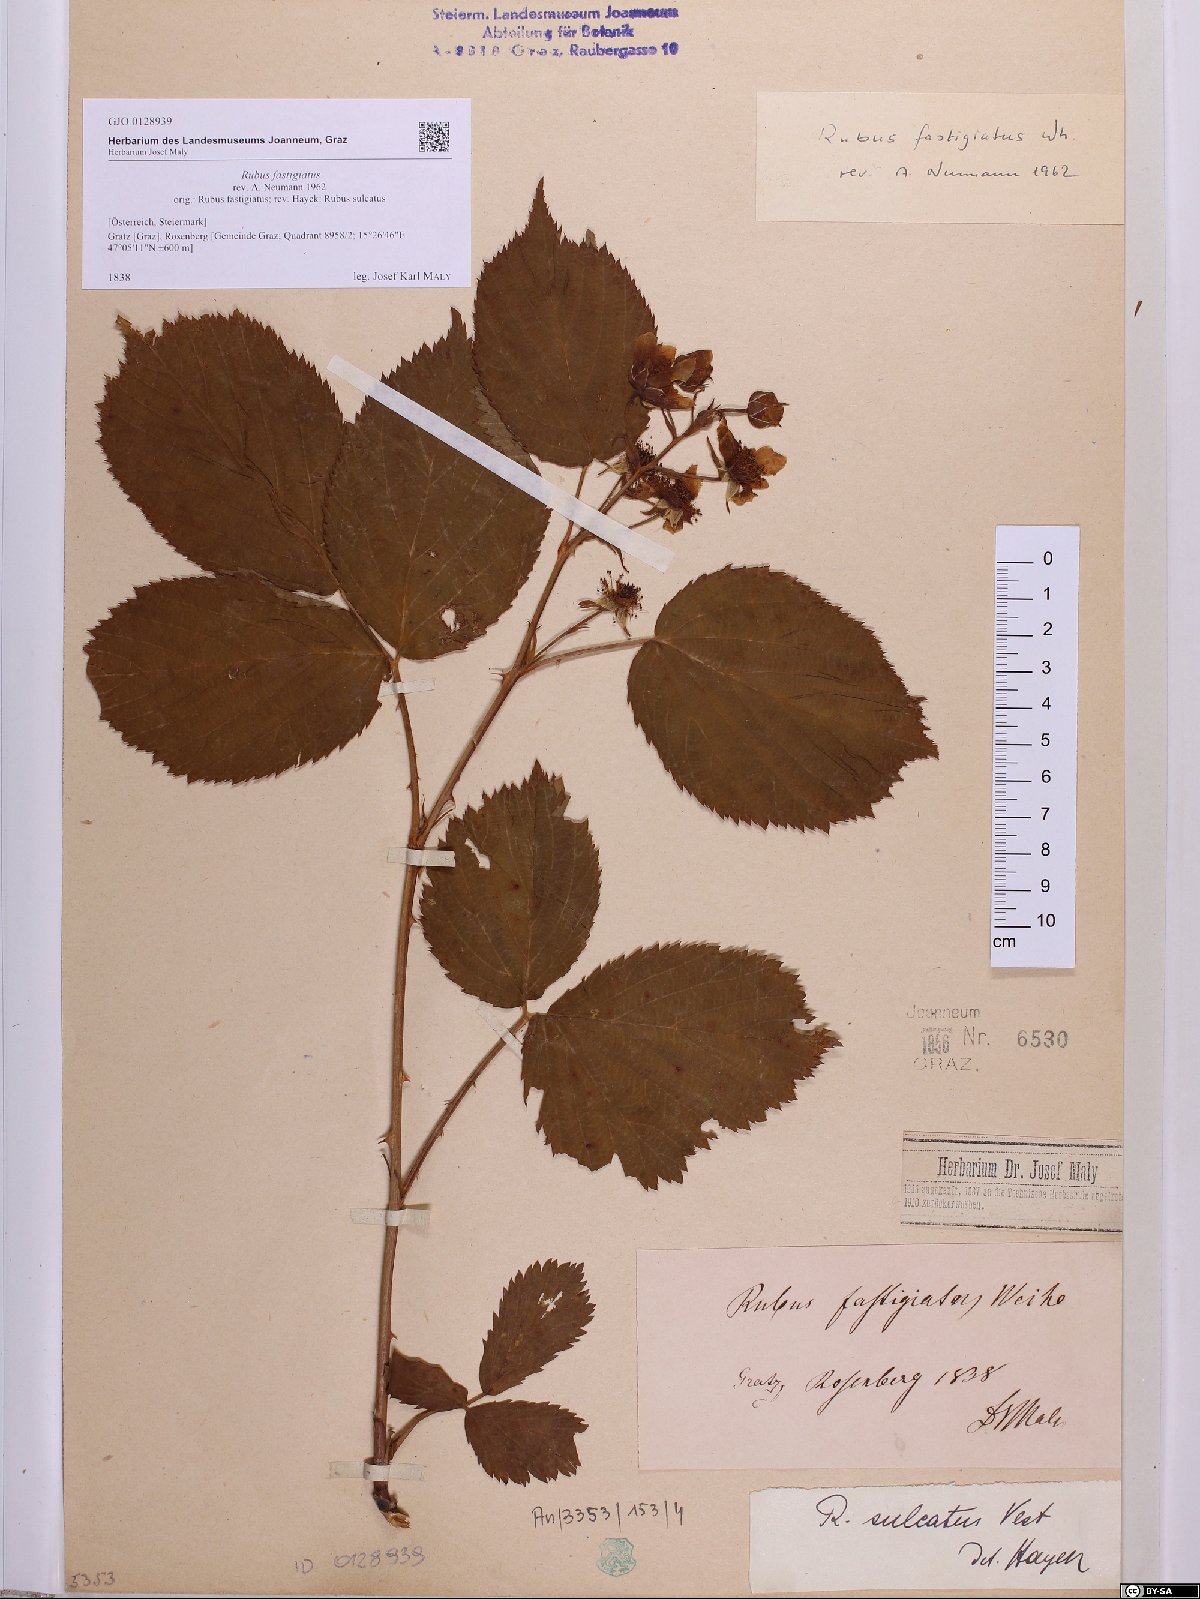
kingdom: Plantae
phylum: Tracheophyta
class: Magnoliopsida
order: Rosales
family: Rosaceae
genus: Rubus
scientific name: Rubus polonicus
